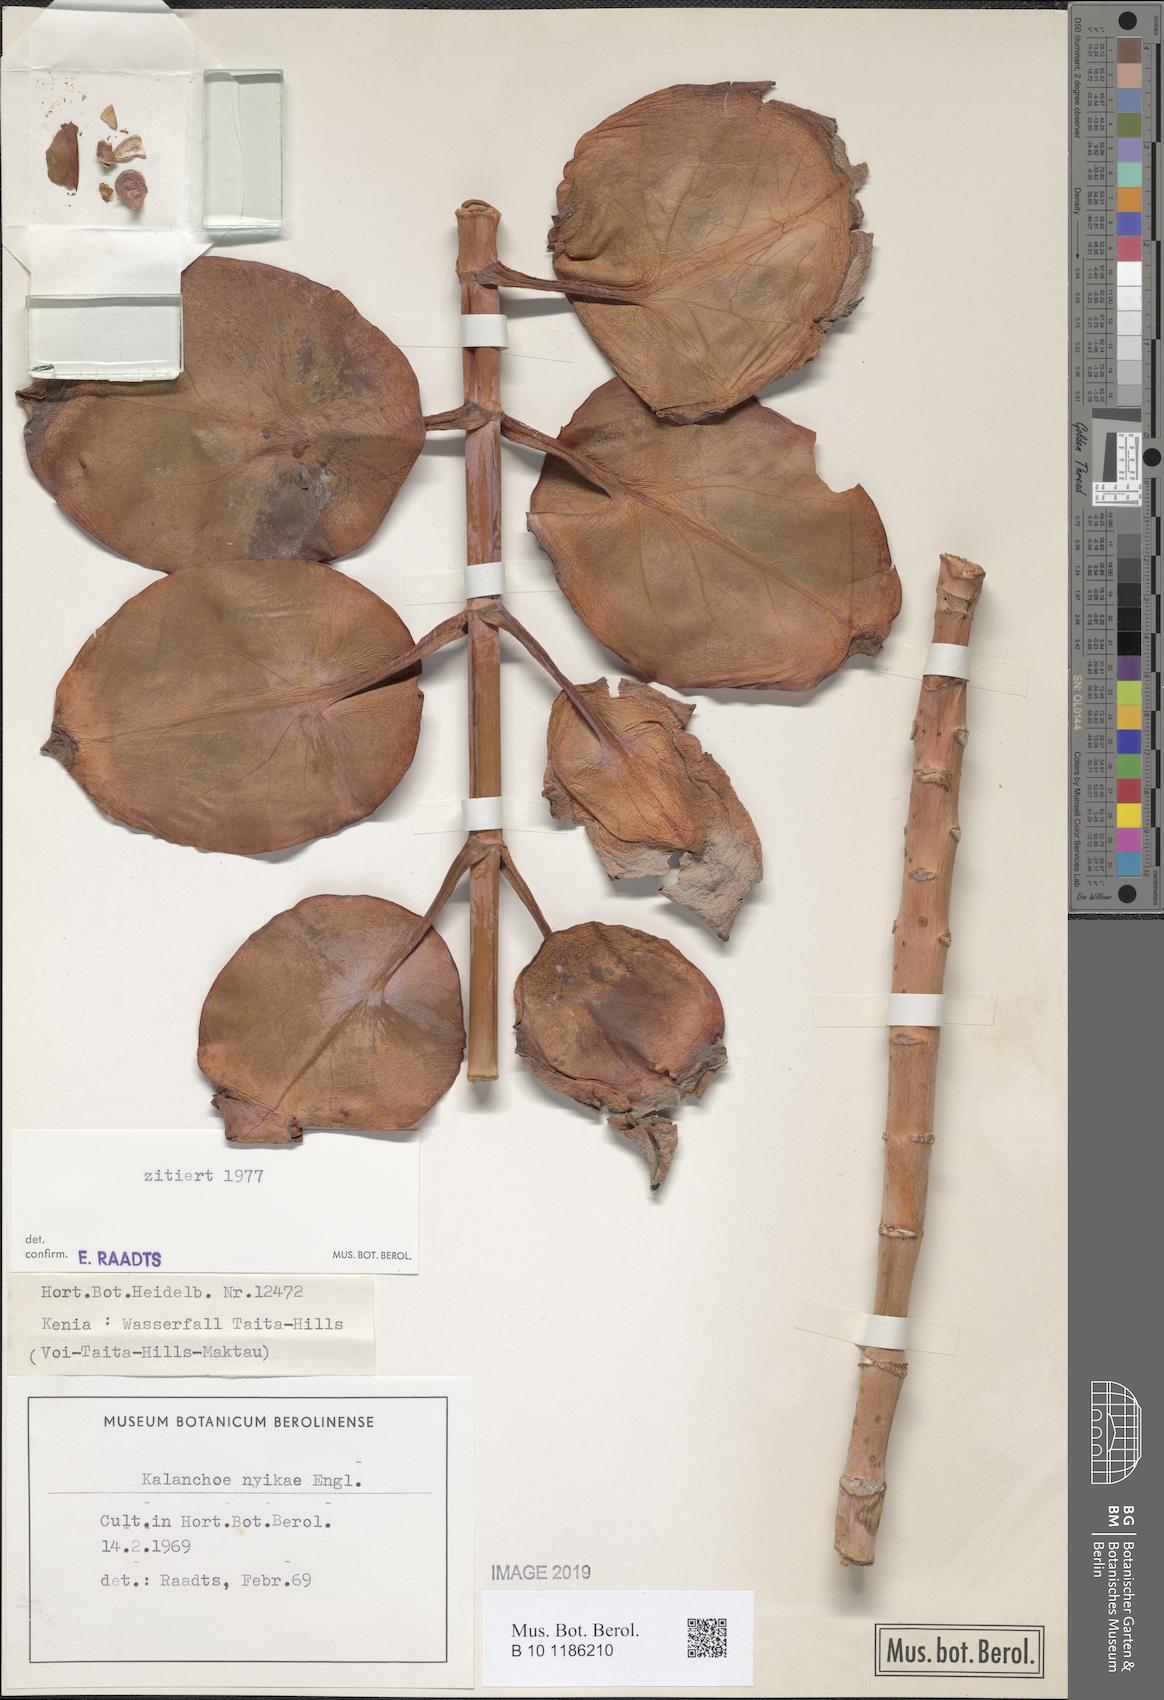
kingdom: Plantae
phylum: Tracheophyta
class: Magnoliopsida
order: Saxifragales
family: Crassulaceae
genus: Kalanchoe
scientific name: Kalanchoe nyikae
